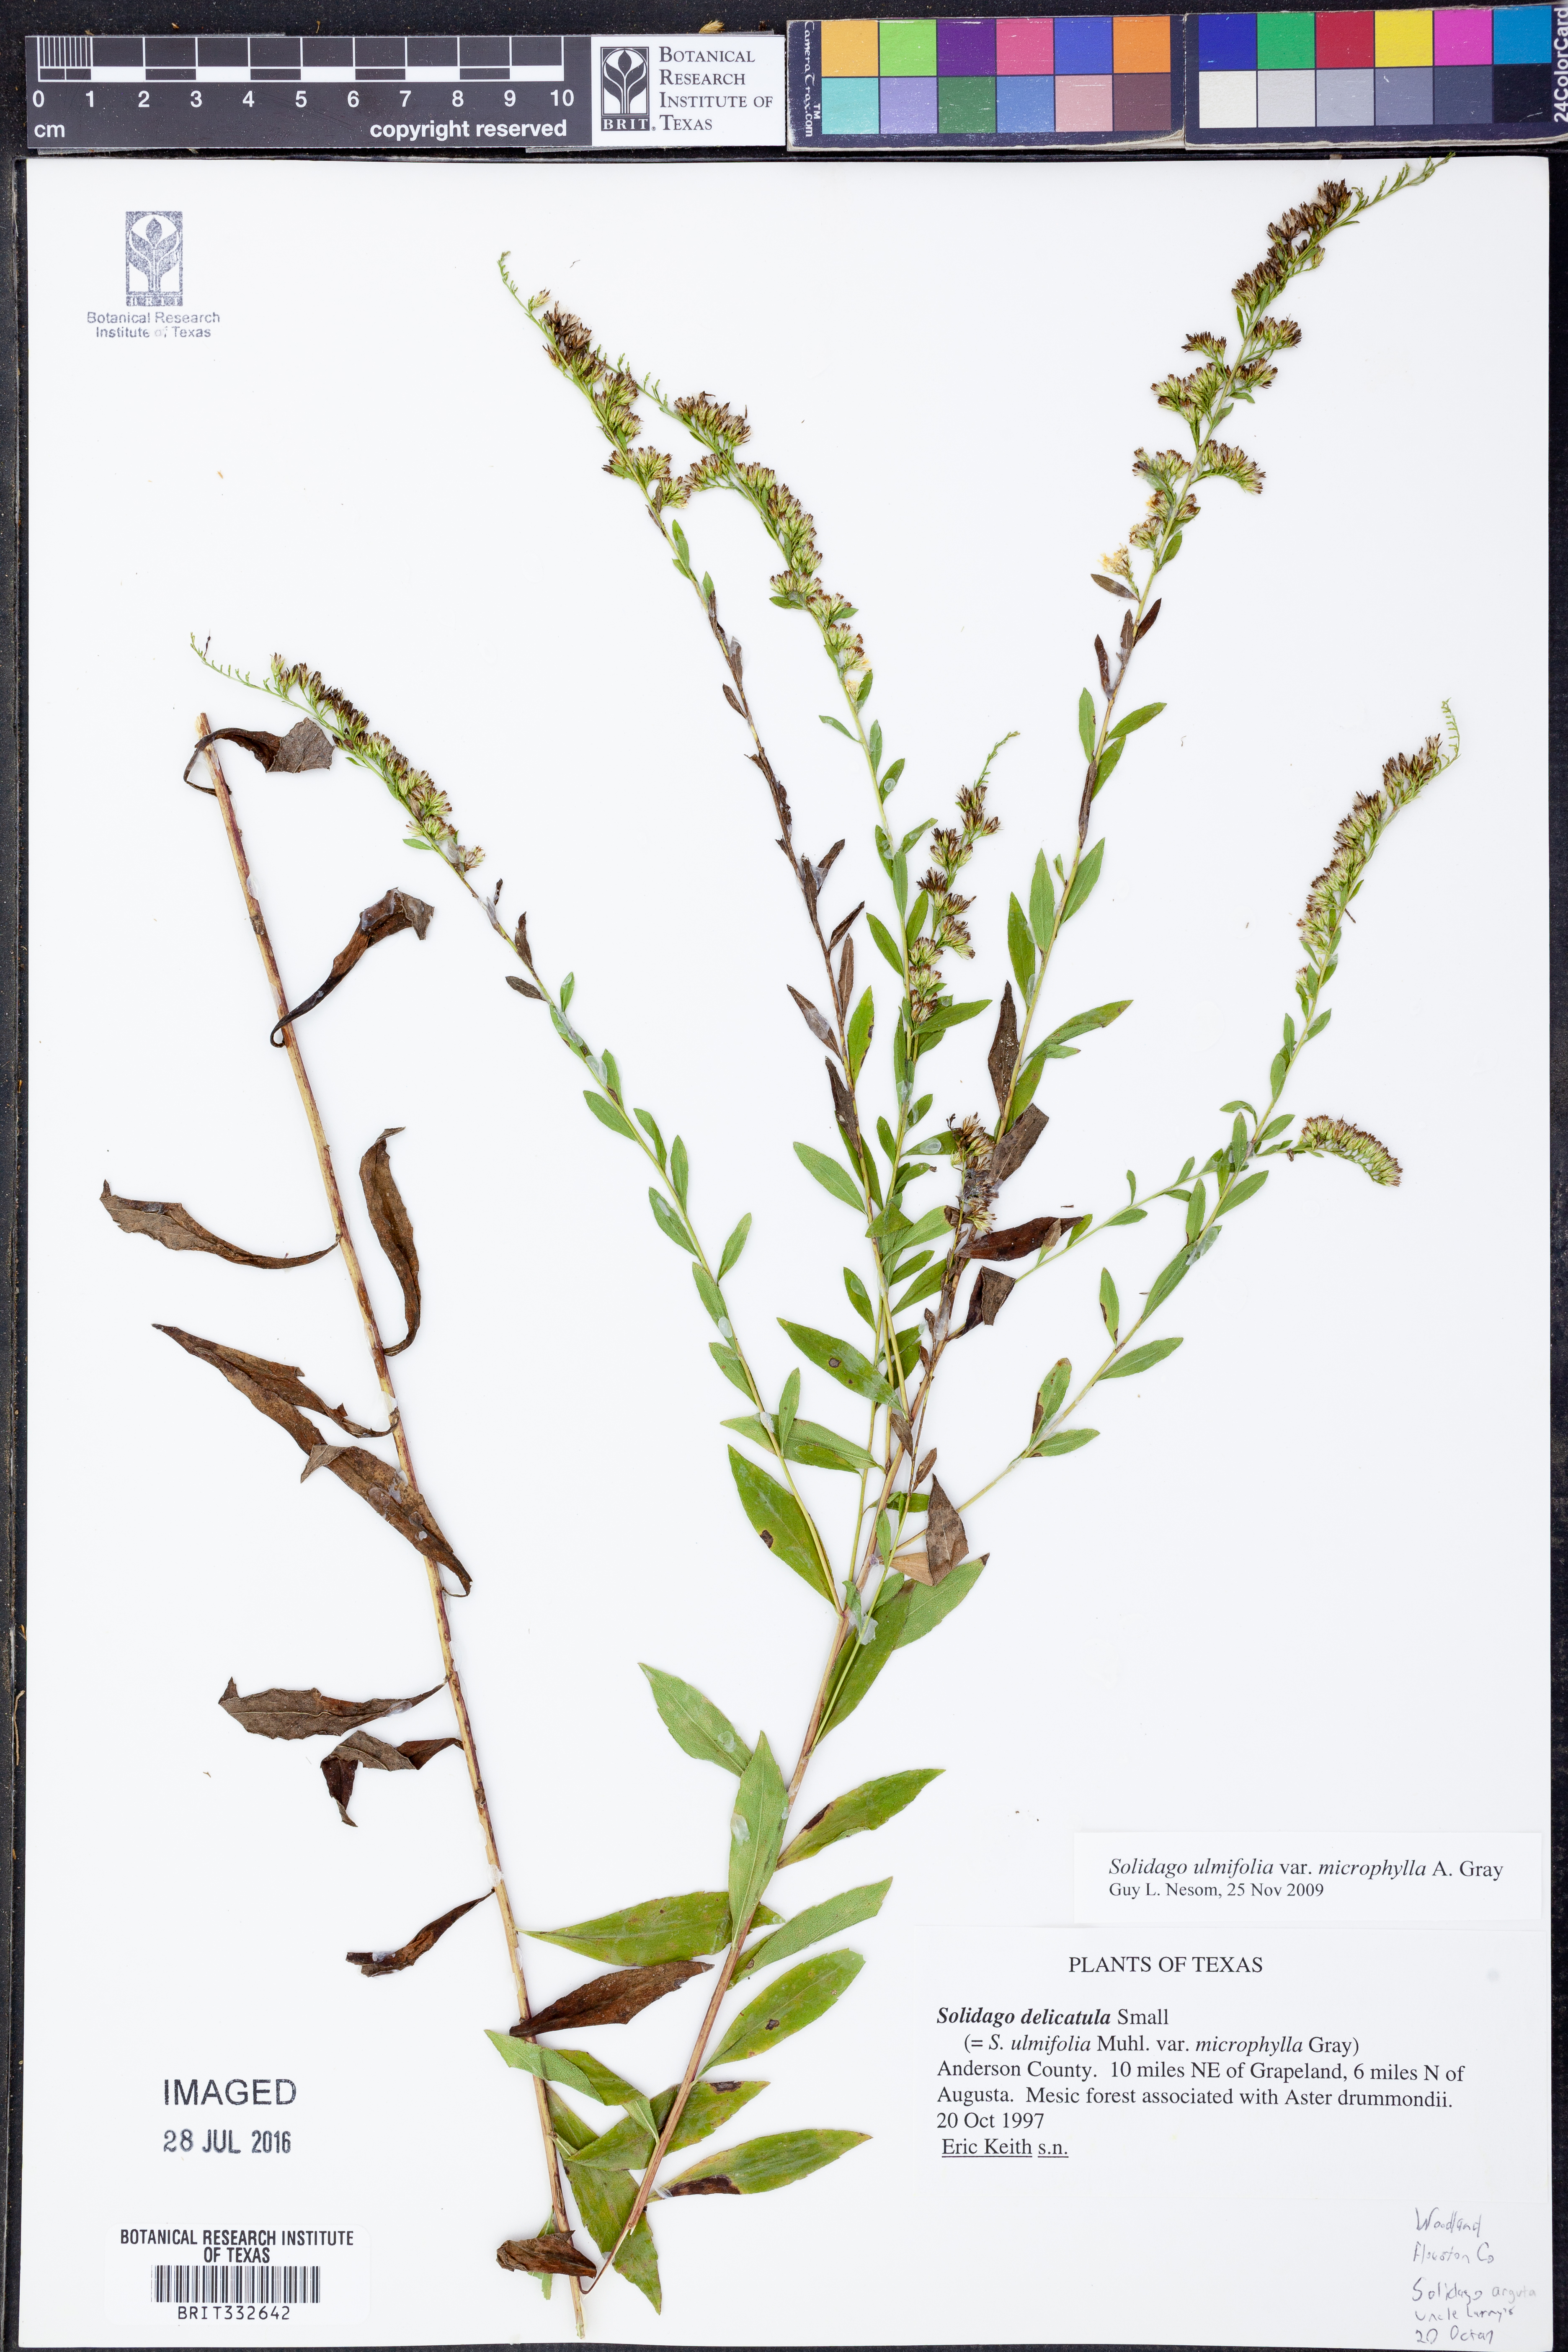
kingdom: Plantae
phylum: Tracheophyta
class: Magnoliopsida
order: Asterales
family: Asteraceae
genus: Solidago
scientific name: Solidago delicatula
